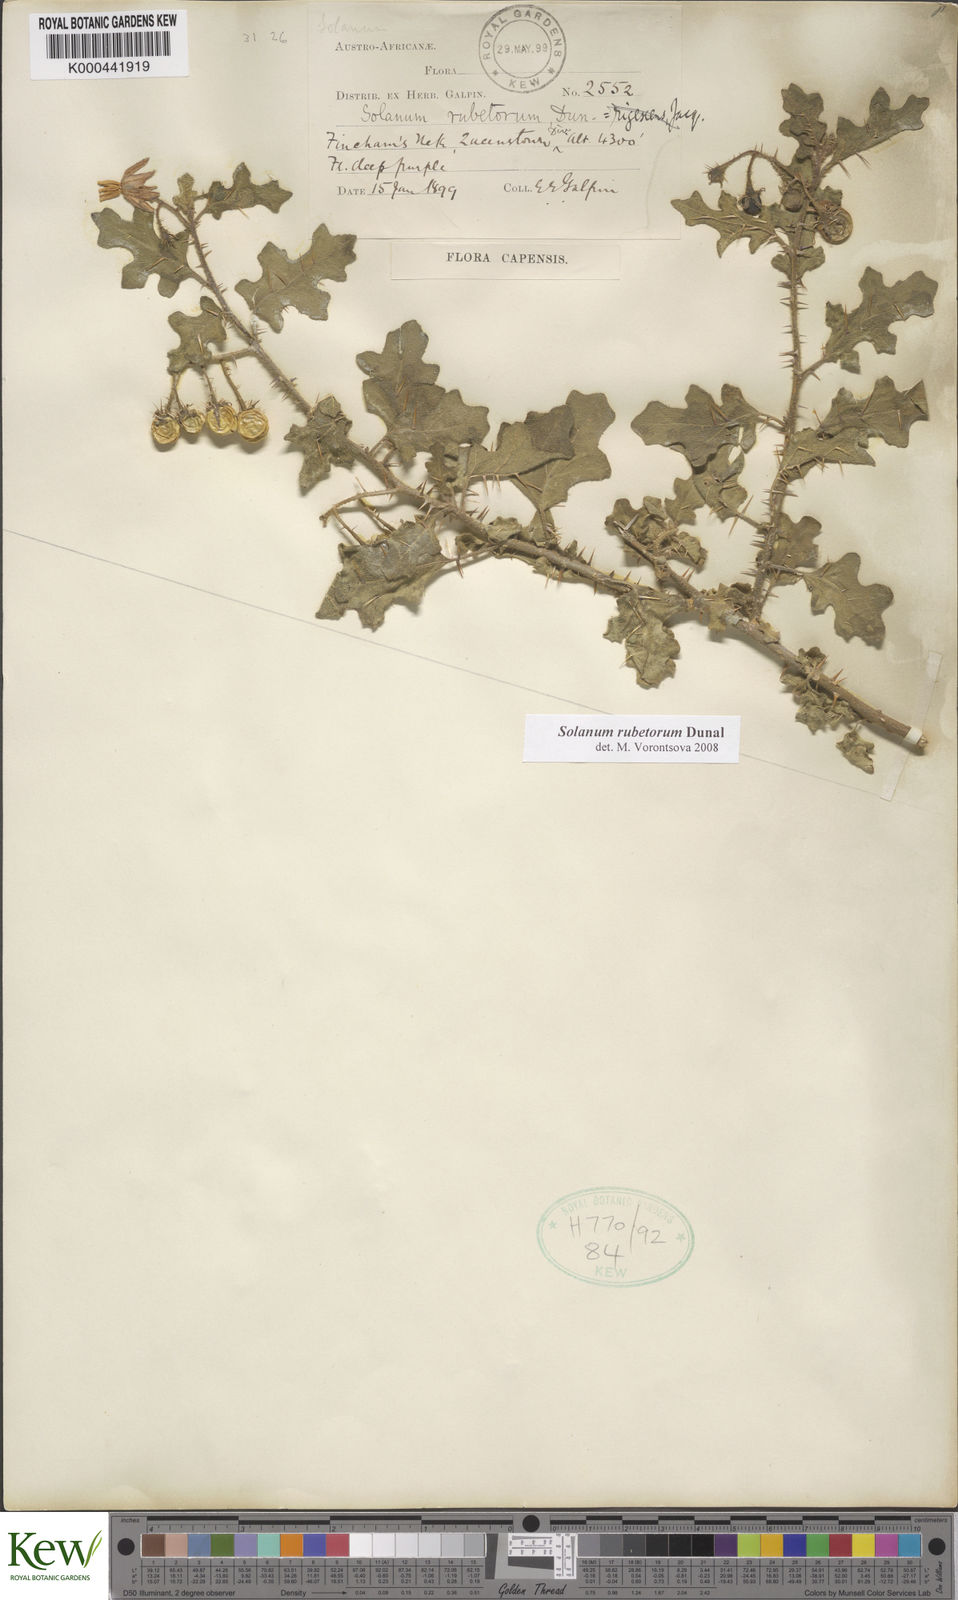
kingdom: Plantae
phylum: Tracheophyta
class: Magnoliopsida
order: Solanales
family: Solanaceae
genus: Solanum
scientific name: Solanum rubetorum
